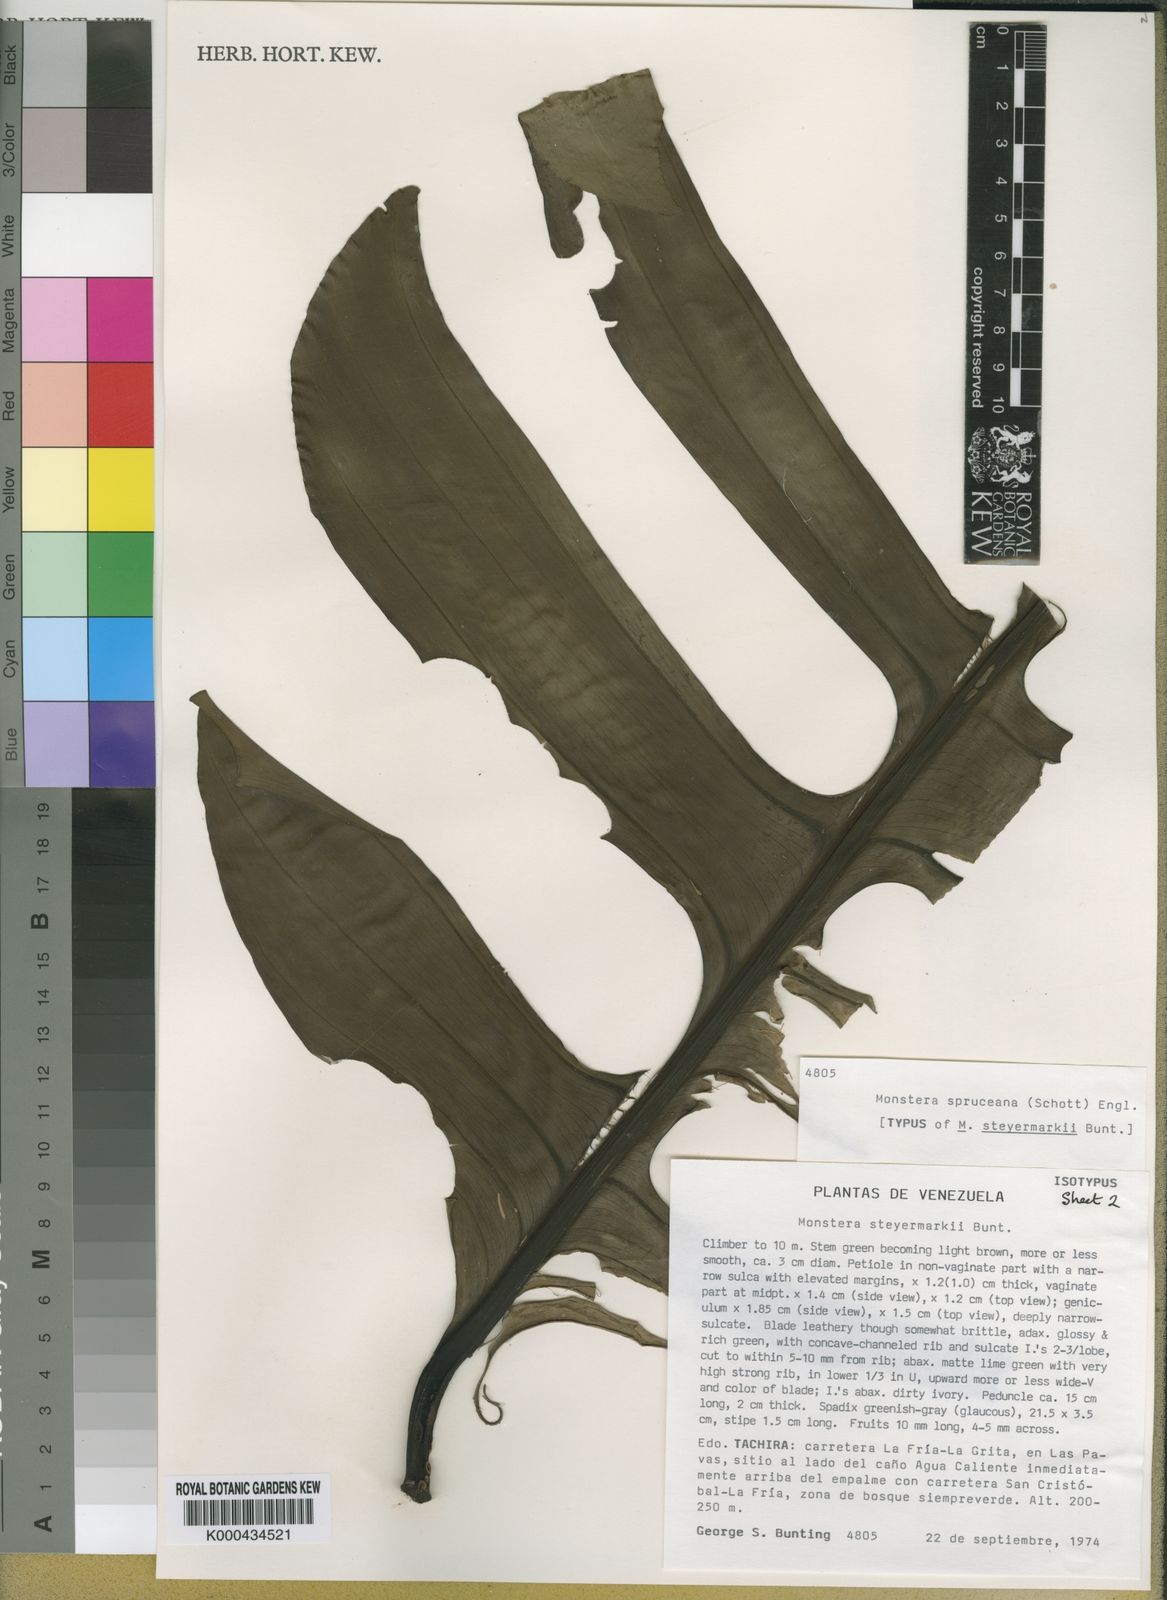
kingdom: Plantae
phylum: Tracheophyta
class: Liliopsida
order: Alismatales
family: Araceae
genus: Monstera
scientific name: Monstera spruceana
